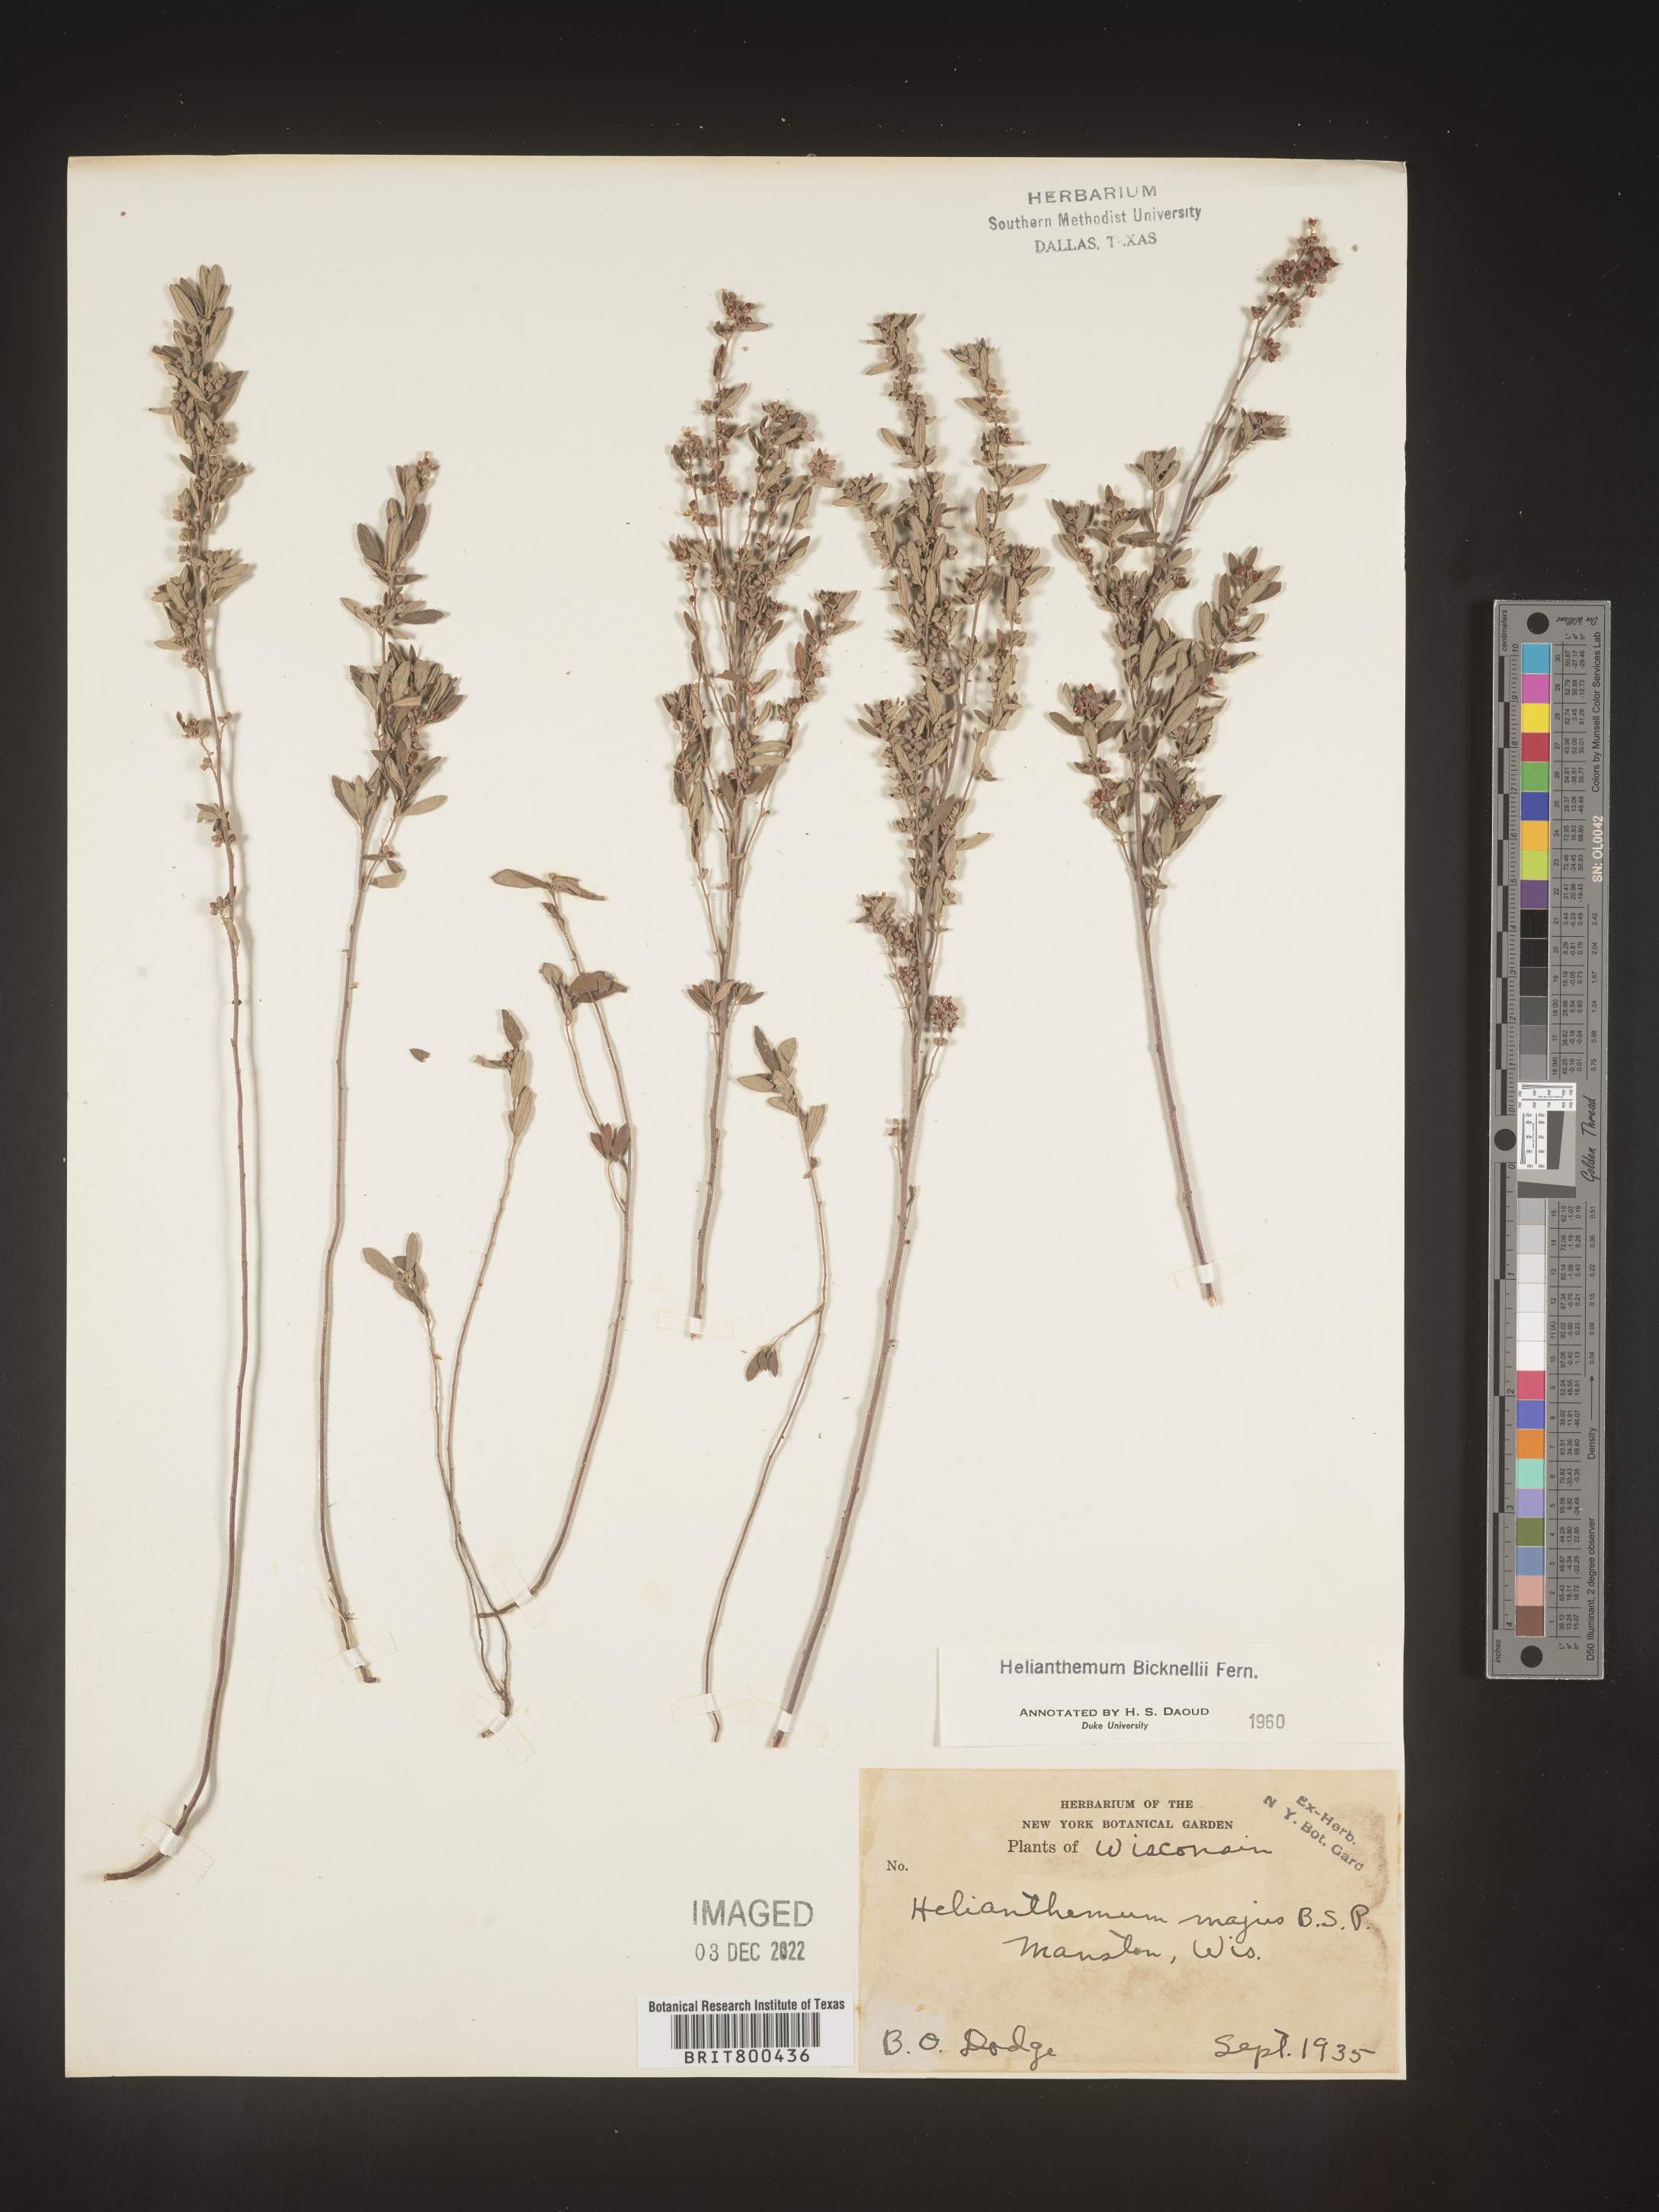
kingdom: Plantae
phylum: Tracheophyta
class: Magnoliopsida
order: Malvales
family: Cistaceae
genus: Helianthemum
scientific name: Helianthemum
